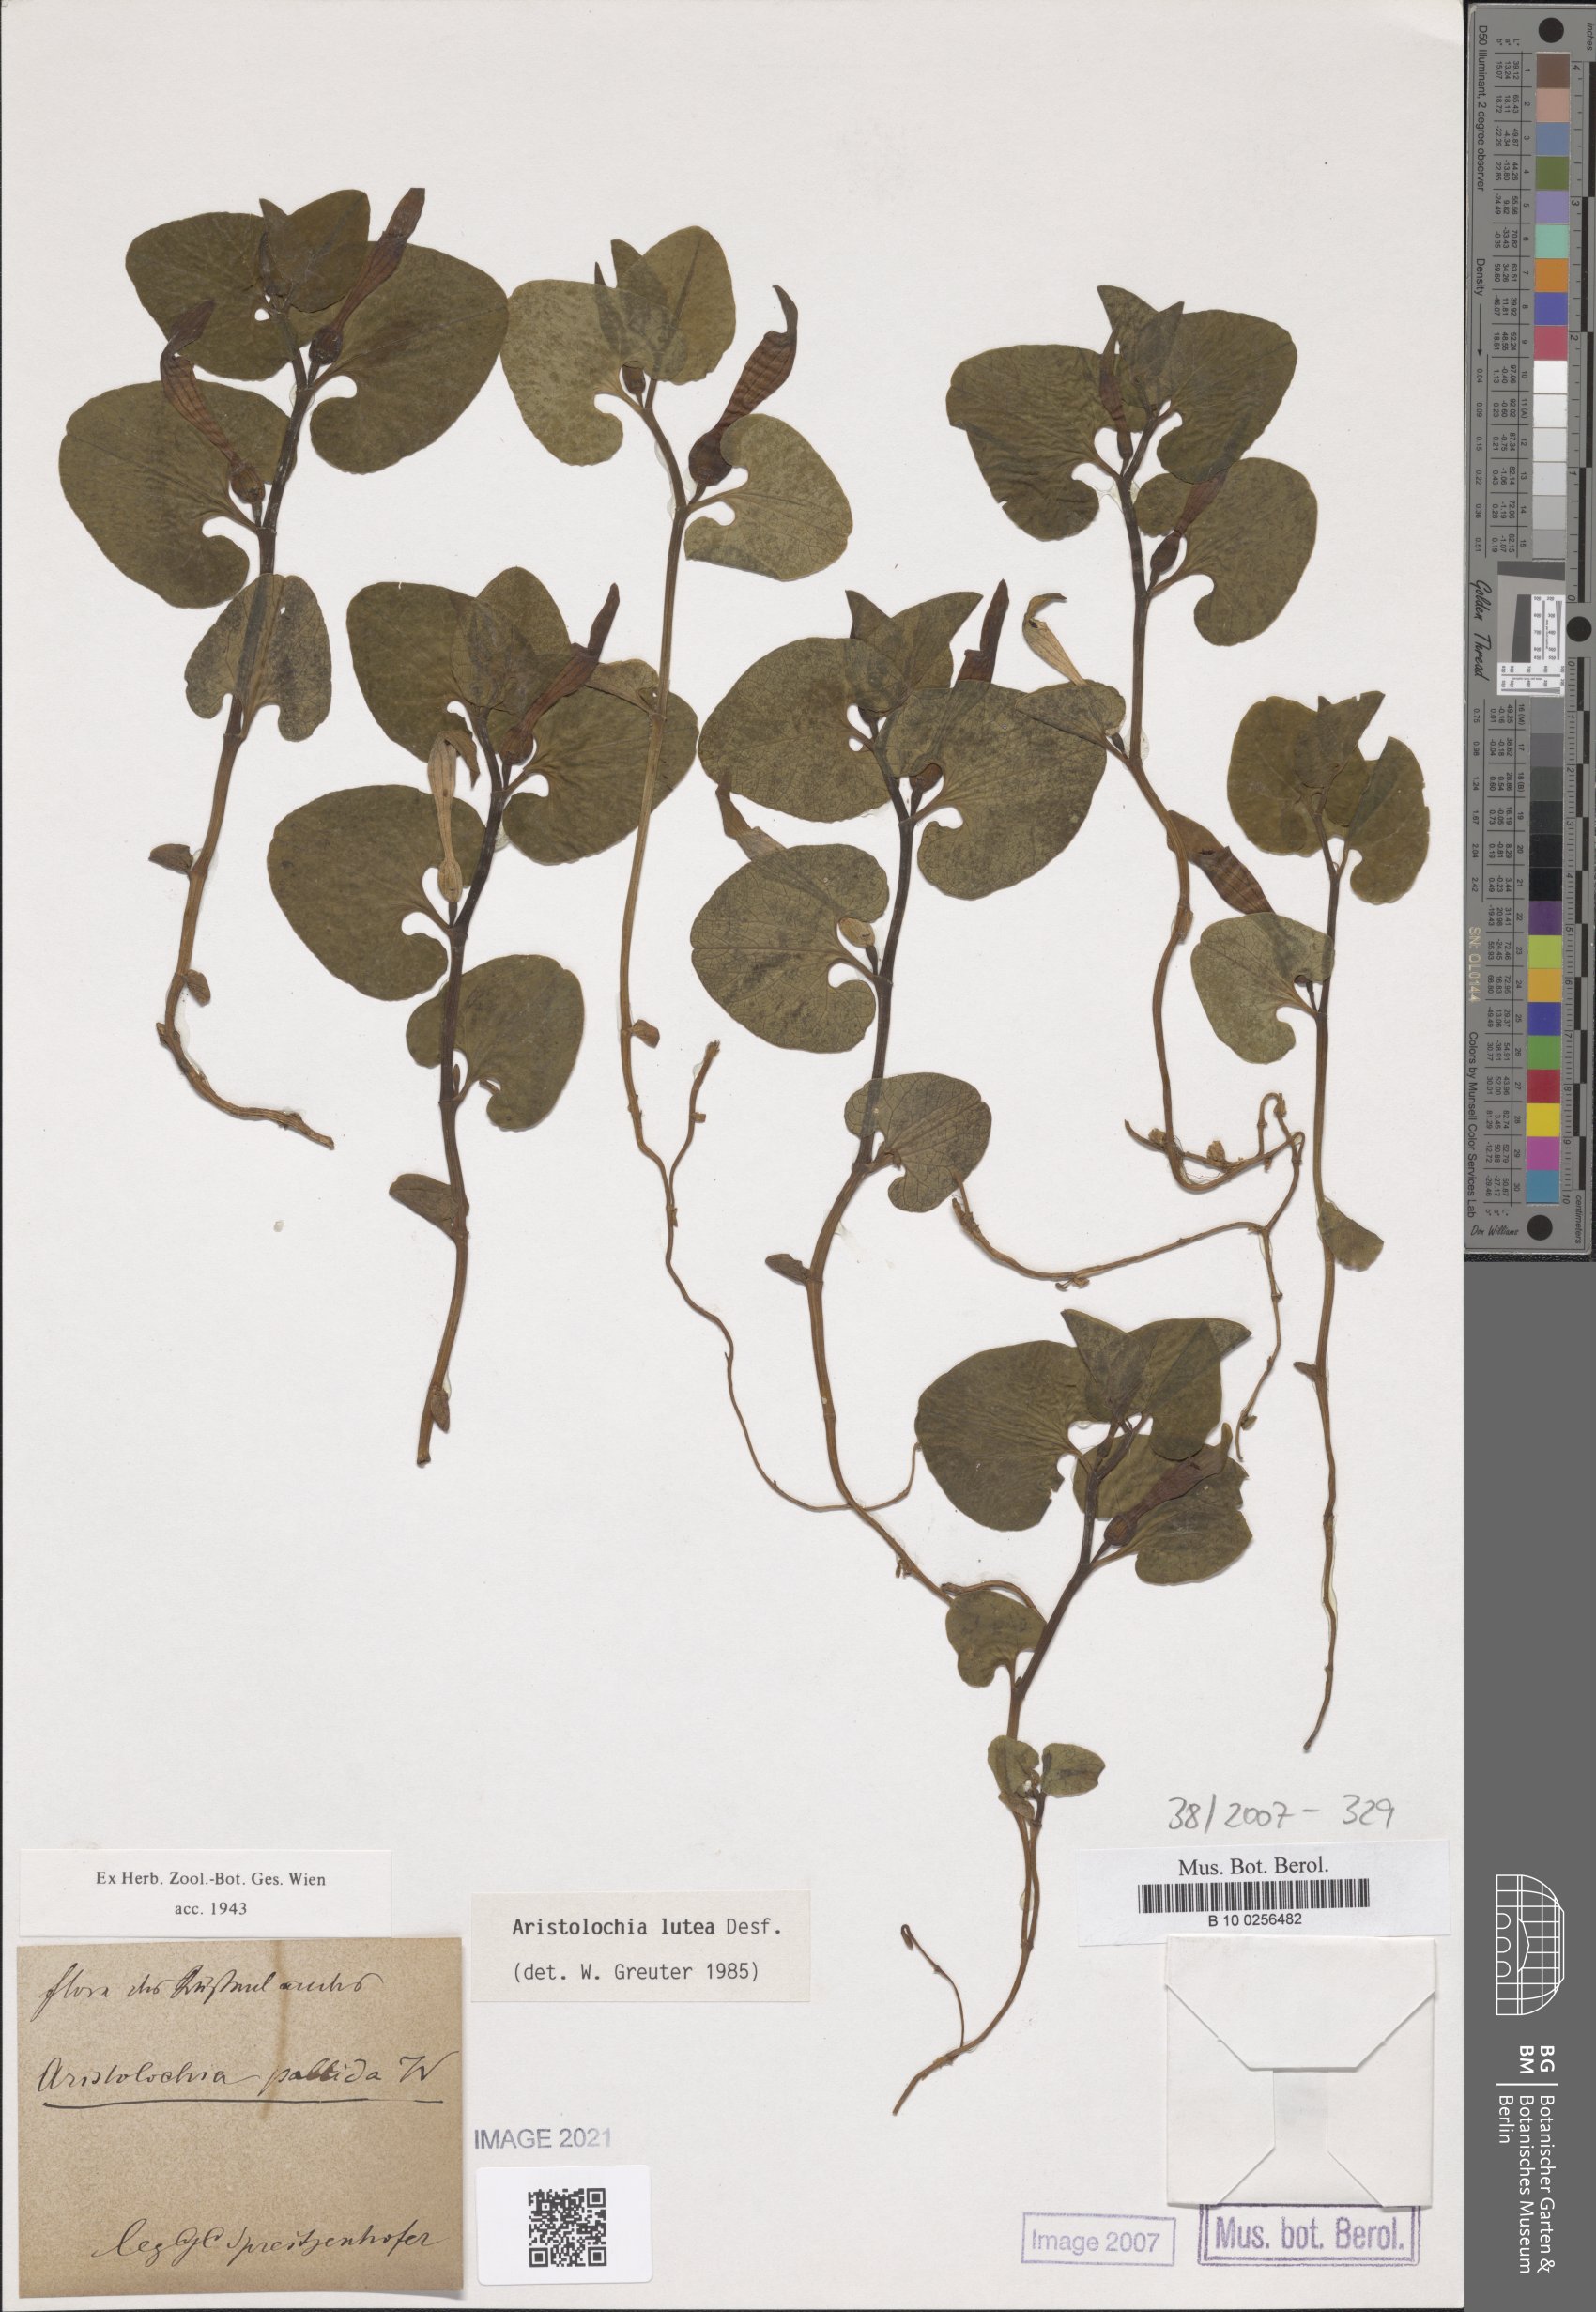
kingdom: Plantae
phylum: Tracheophyta
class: Magnoliopsida
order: Piperales
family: Aristolochiaceae
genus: Aristolochia
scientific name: Aristolochia lutea
